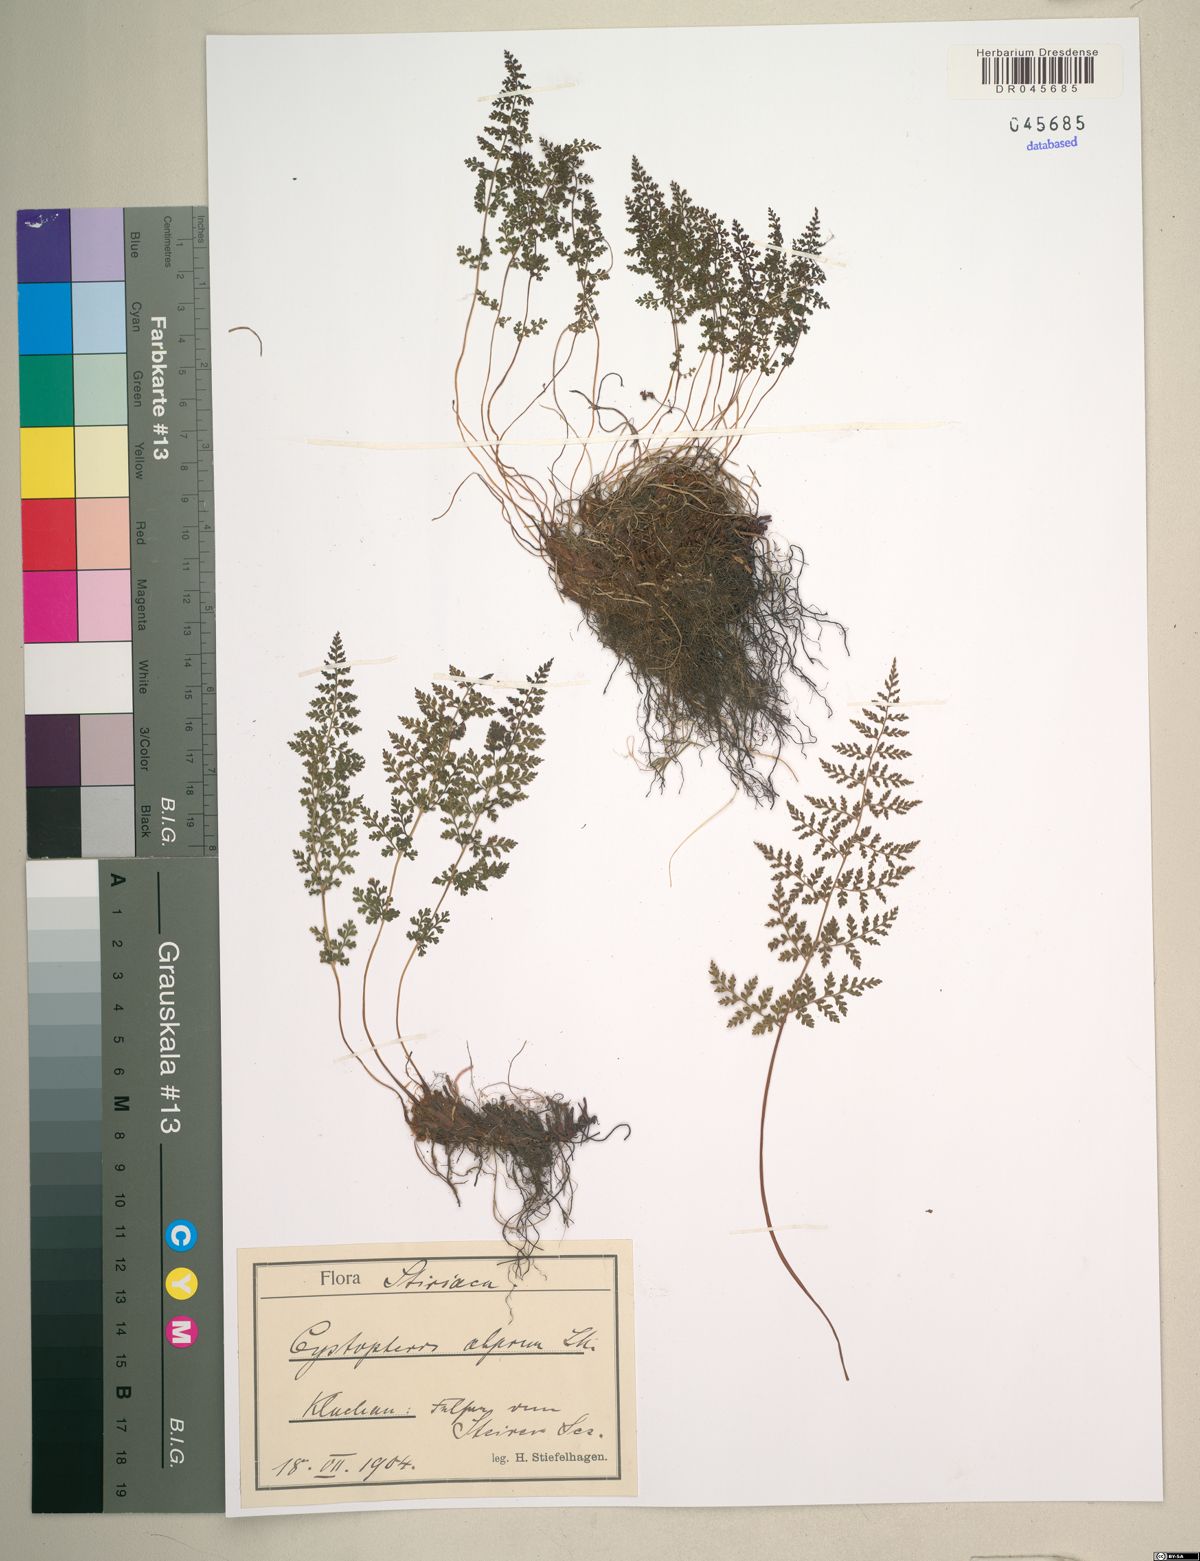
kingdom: Plantae
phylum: Tracheophyta
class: Polypodiopsida
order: Polypodiales
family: Cystopteridaceae
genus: Cystopteris
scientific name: Cystopteris alpina
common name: Alpine bladder-fern
